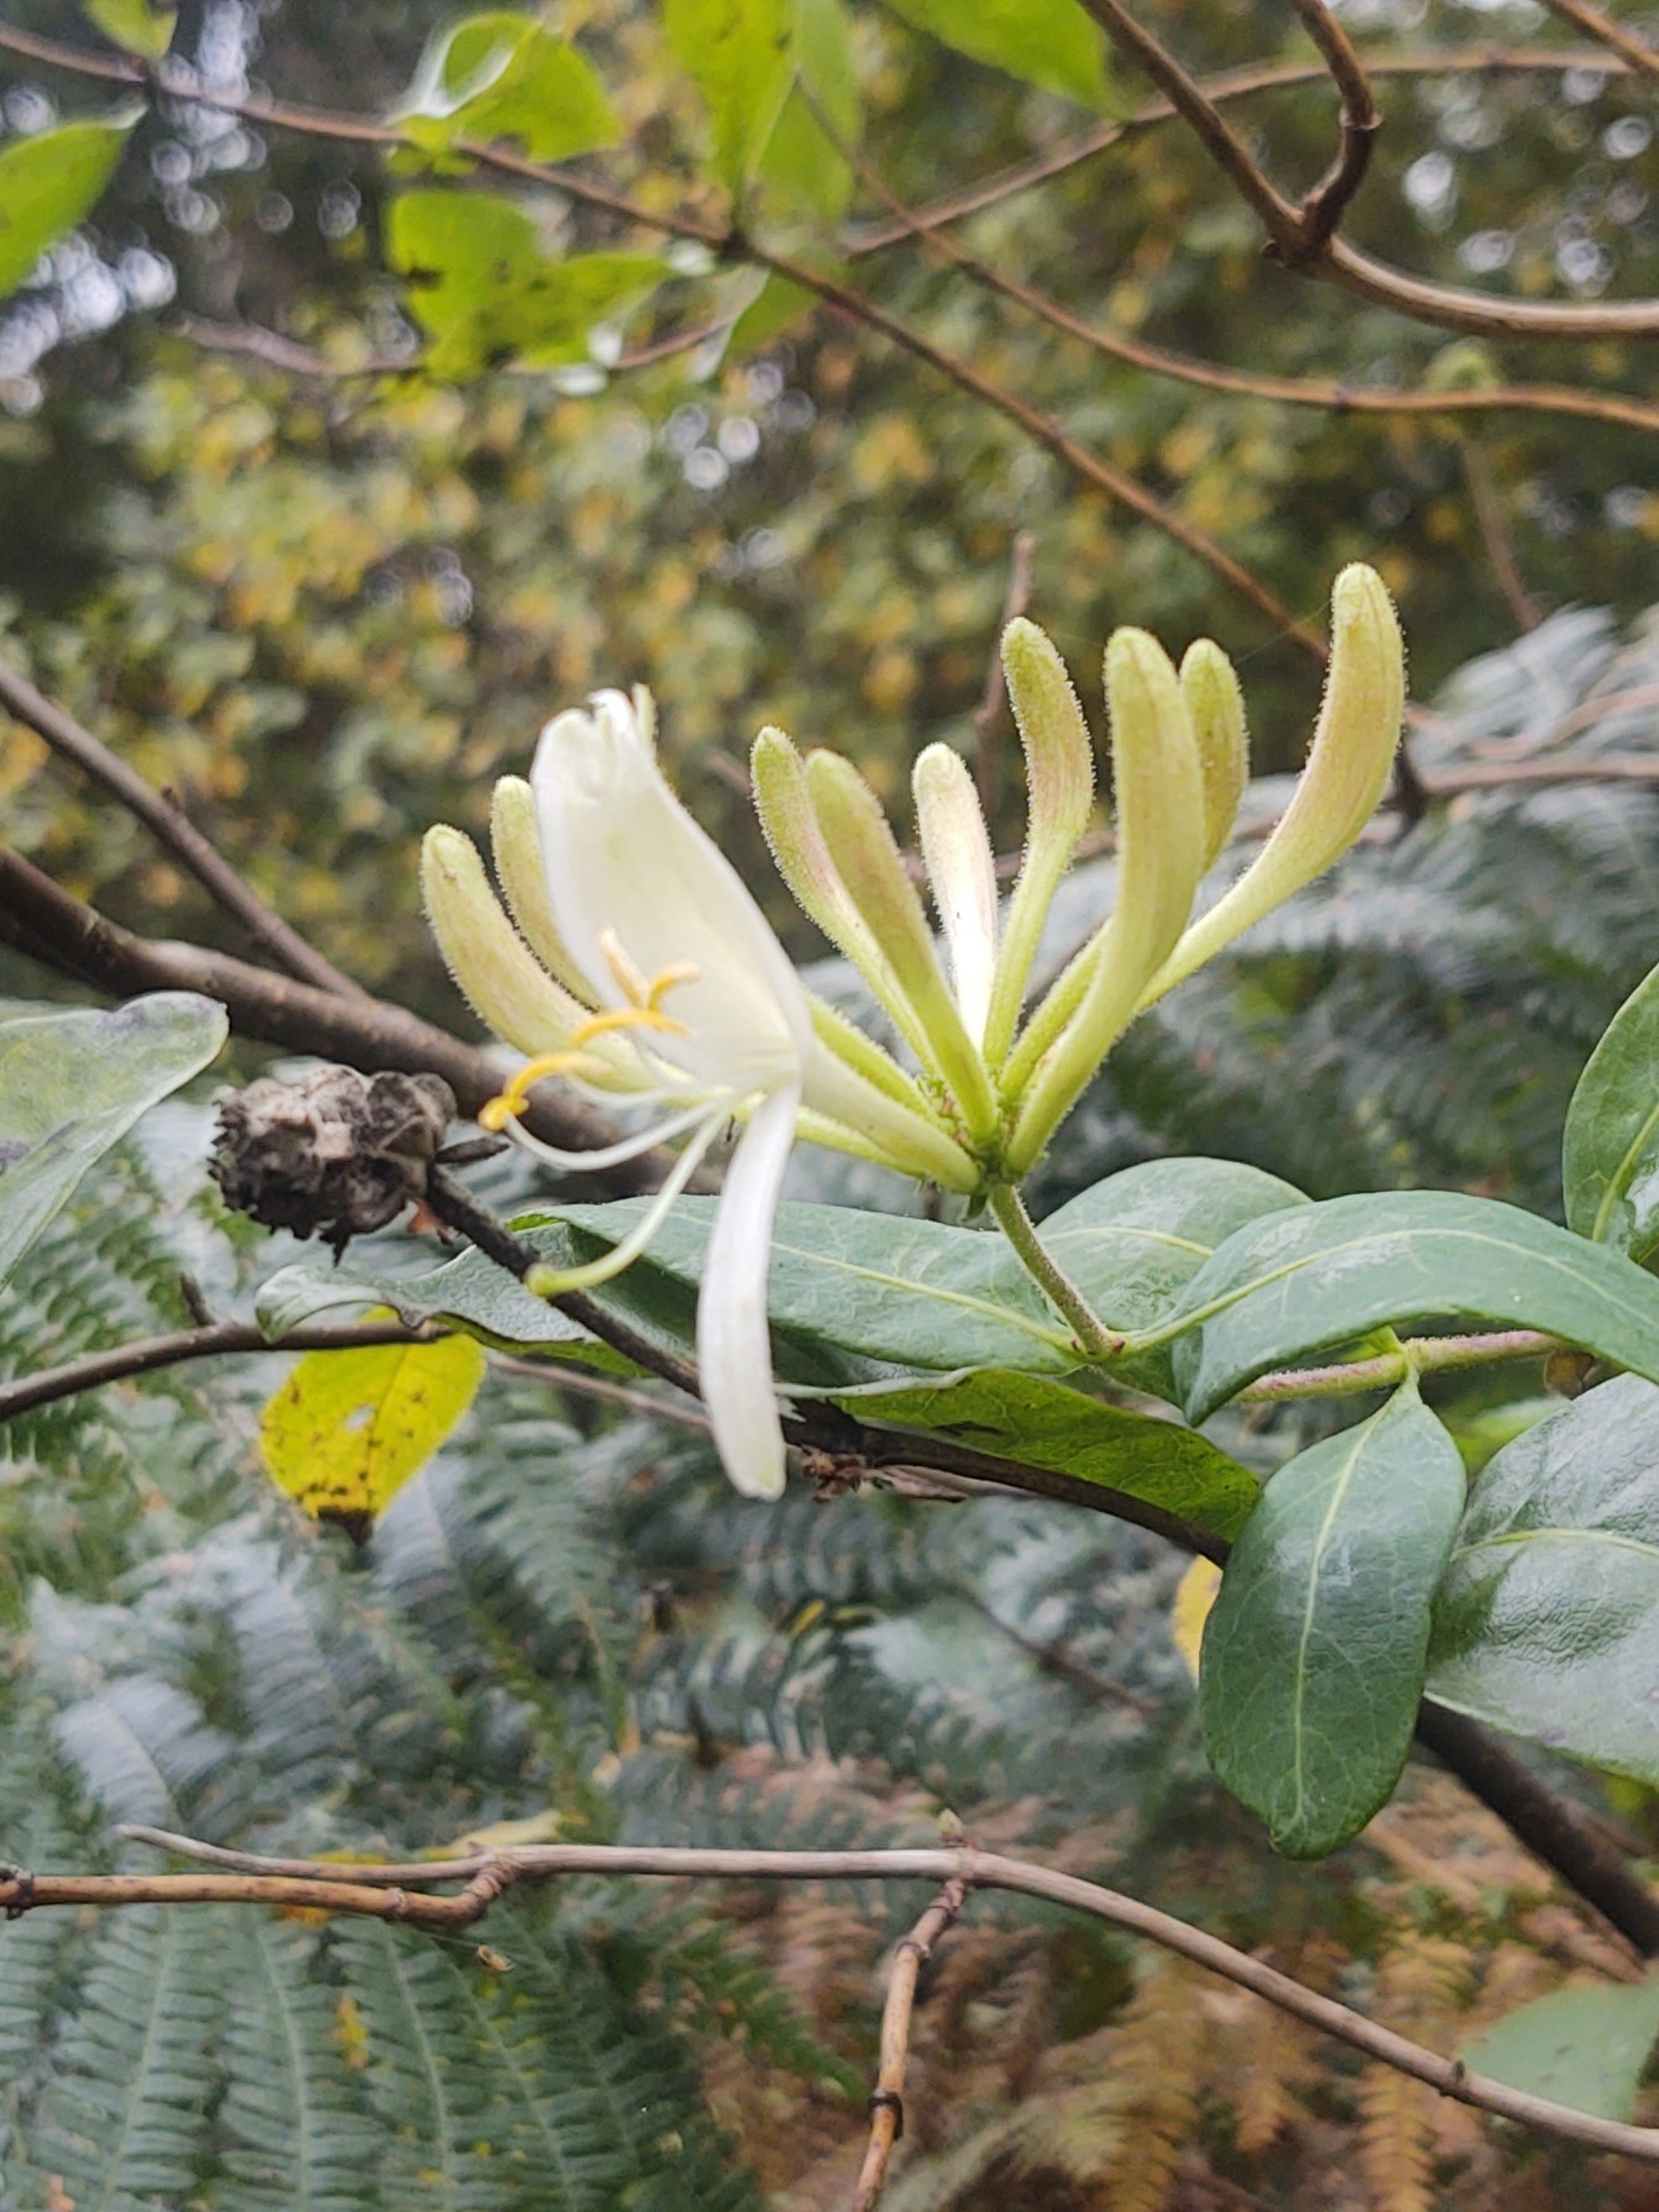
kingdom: Plantae
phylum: Tracheophyta
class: Magnoliopsida
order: Dipsacales
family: Caprifoliaceae
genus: Lonicera
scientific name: Lonicera periclymenum
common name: Almindelig gedeblad
